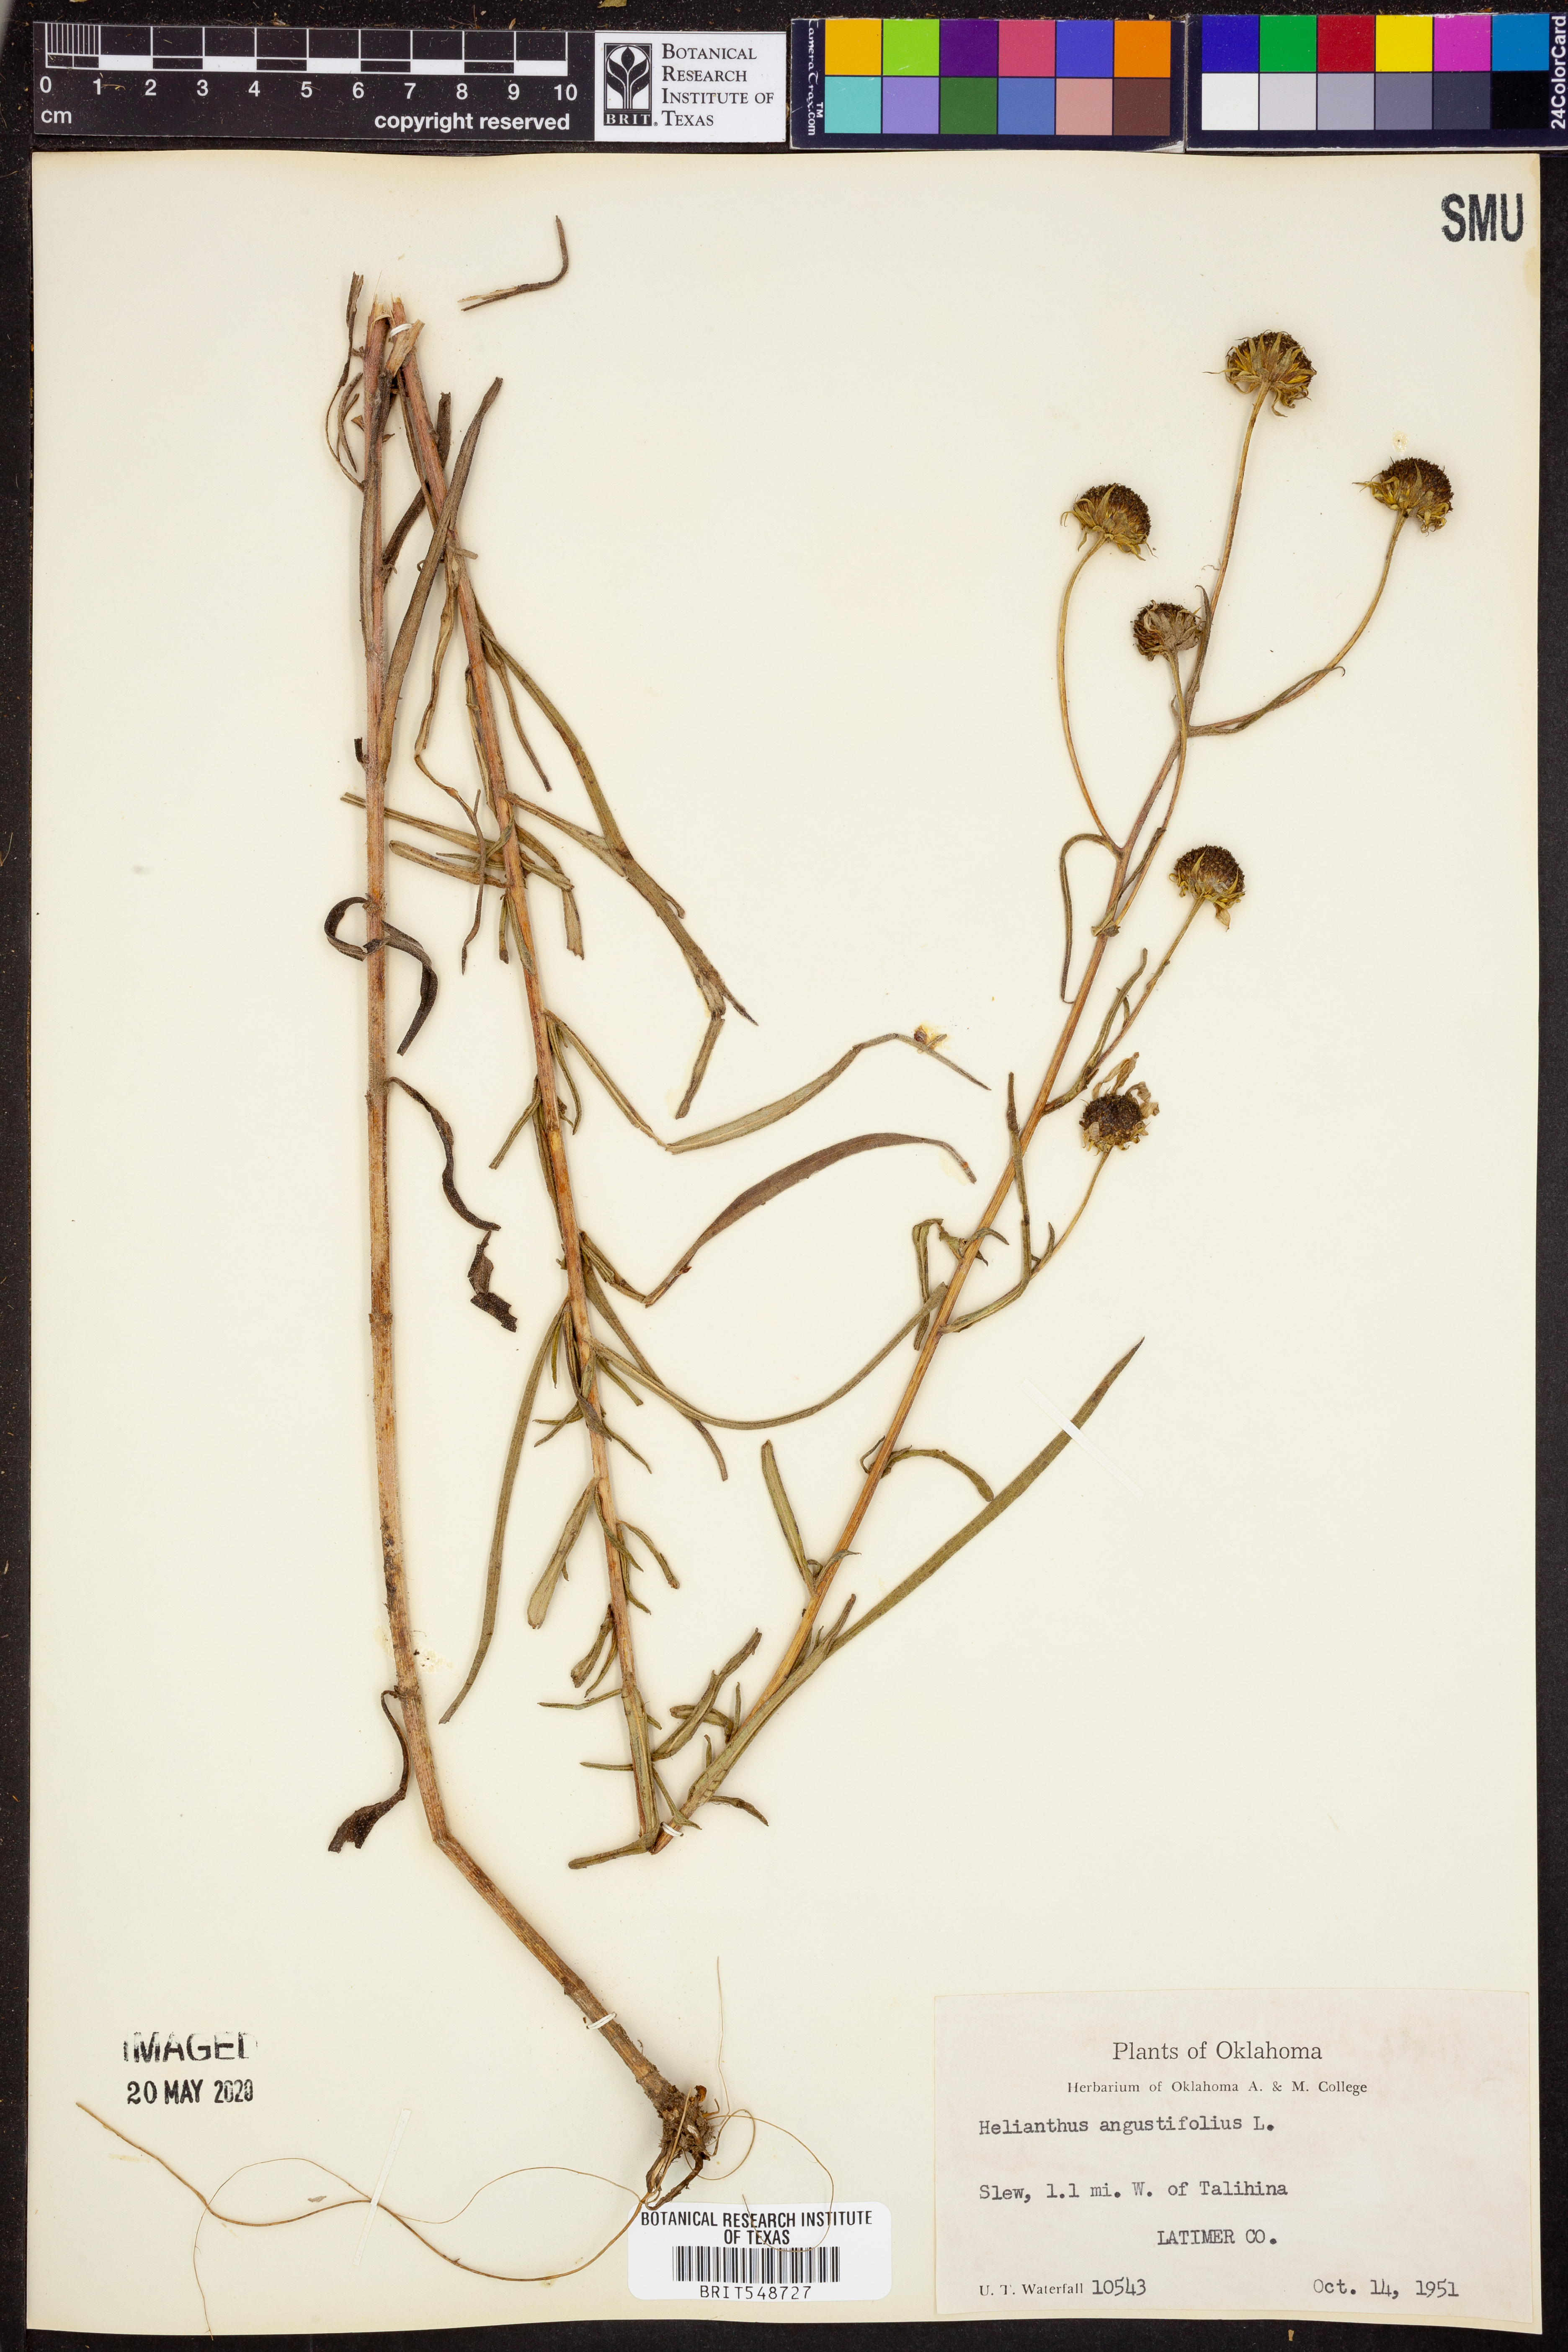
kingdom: Plantae
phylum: Tracheophyta
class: Magnoliopsida
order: Asterales
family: Asteraceae
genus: Helianthus
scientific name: Helianthus angustifolius
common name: Swamp sunflower
